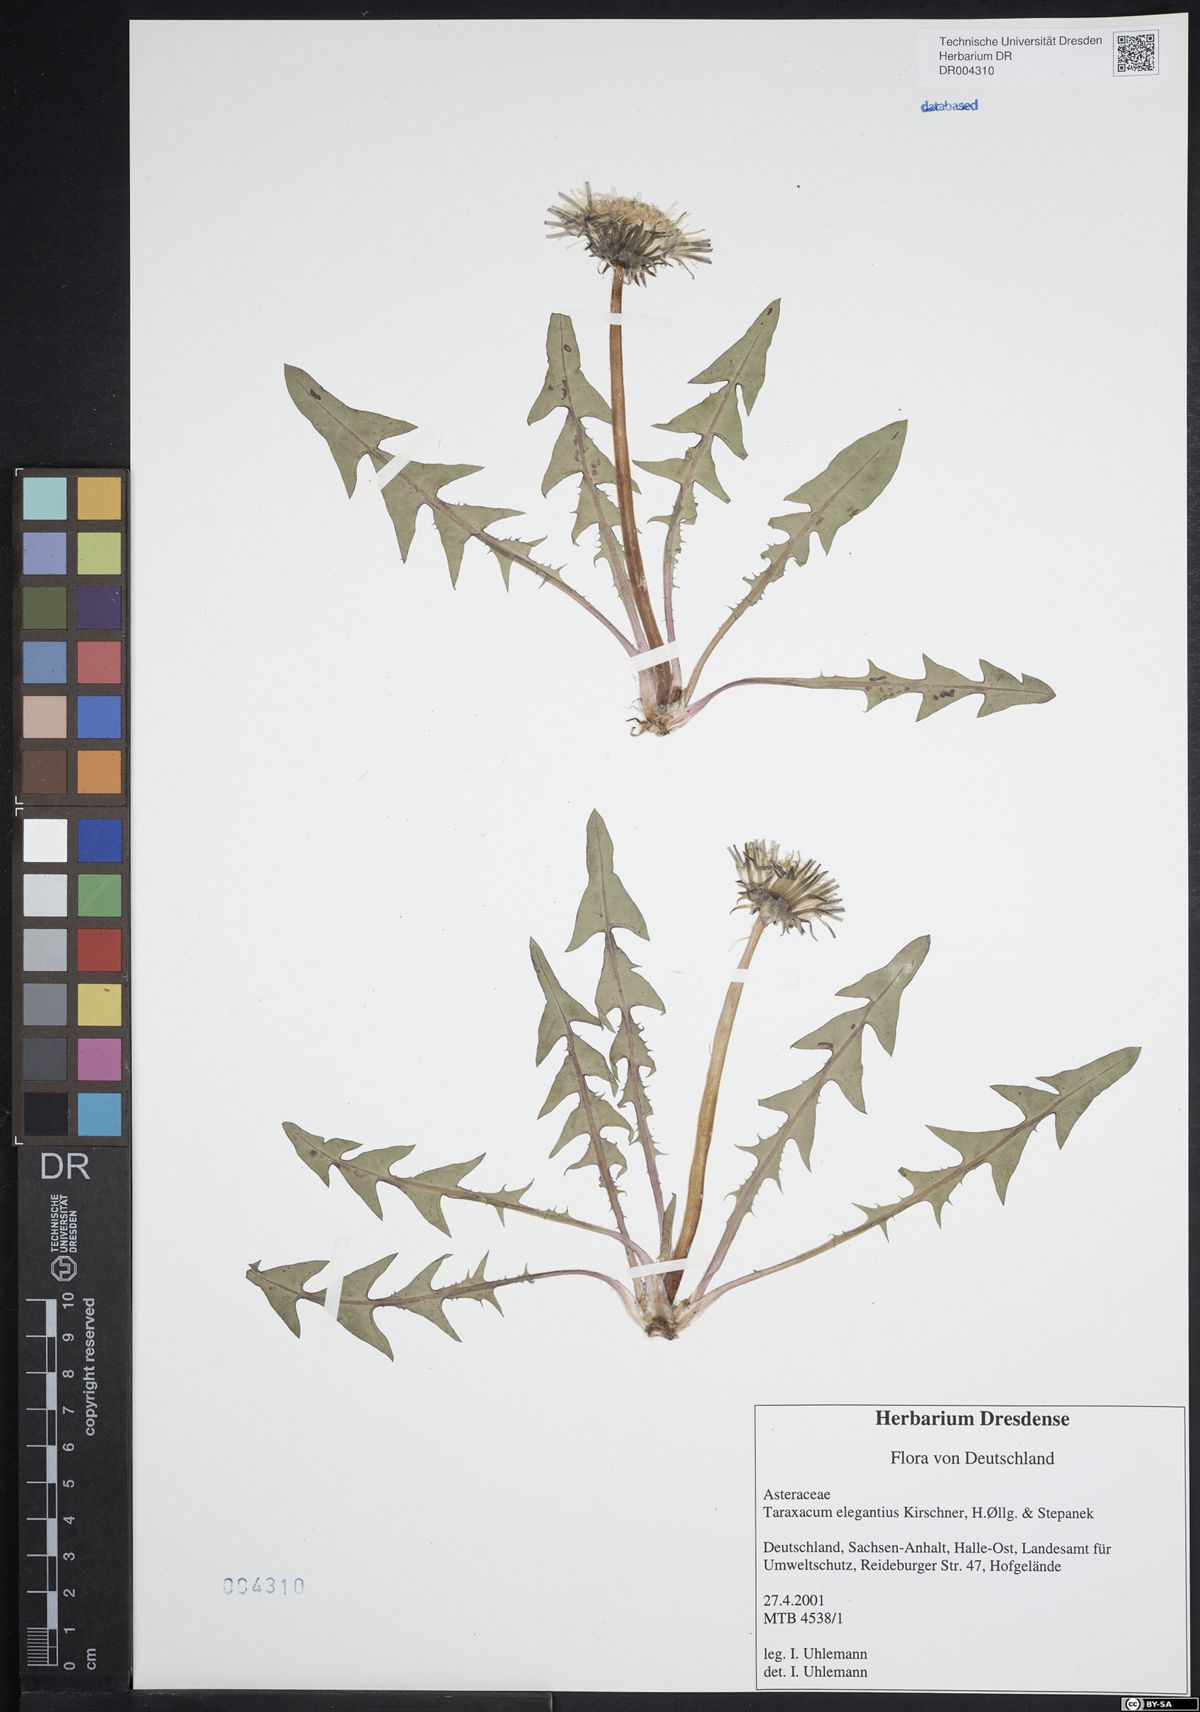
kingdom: Plantae
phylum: Tracheophyta
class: Magnoliopsida
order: Asterales
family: Asteraceae
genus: Taraxacum
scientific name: Taraxacum elegantius
